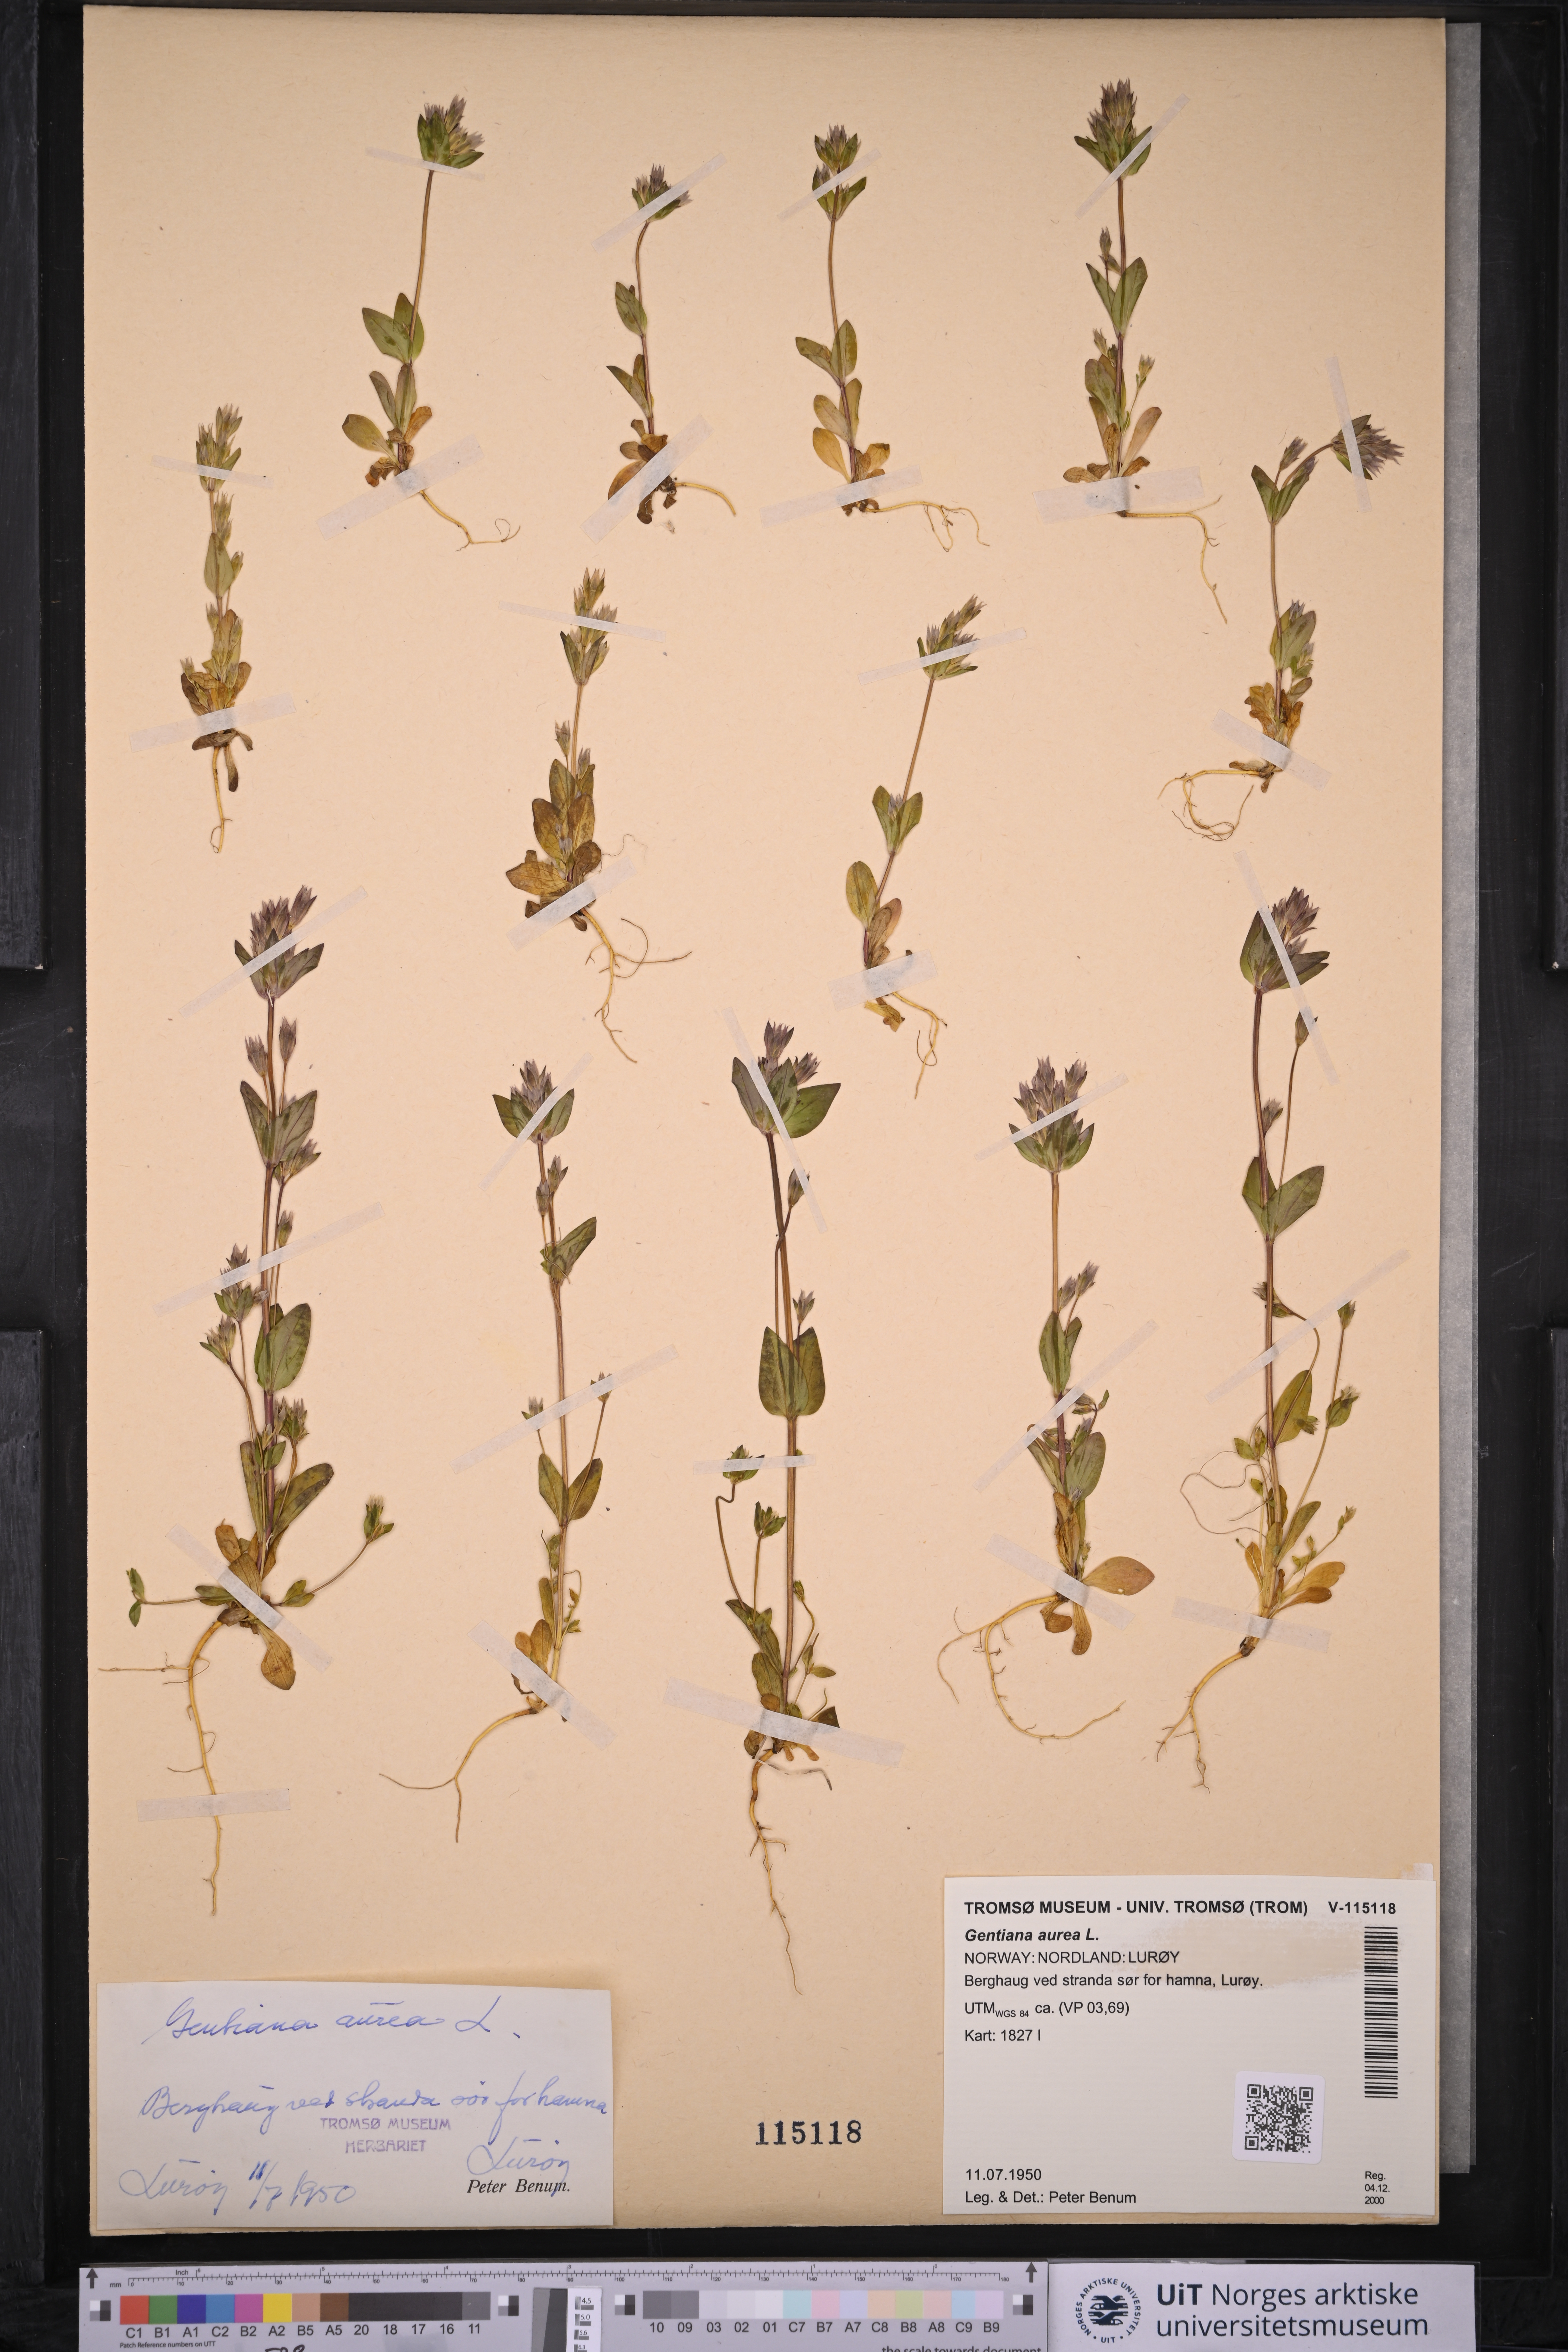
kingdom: Plantae
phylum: Tracheophyta
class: Magnoliopsida
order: Gentianales
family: Gentianaceae
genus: Gentianella
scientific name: Gentianella aurea
